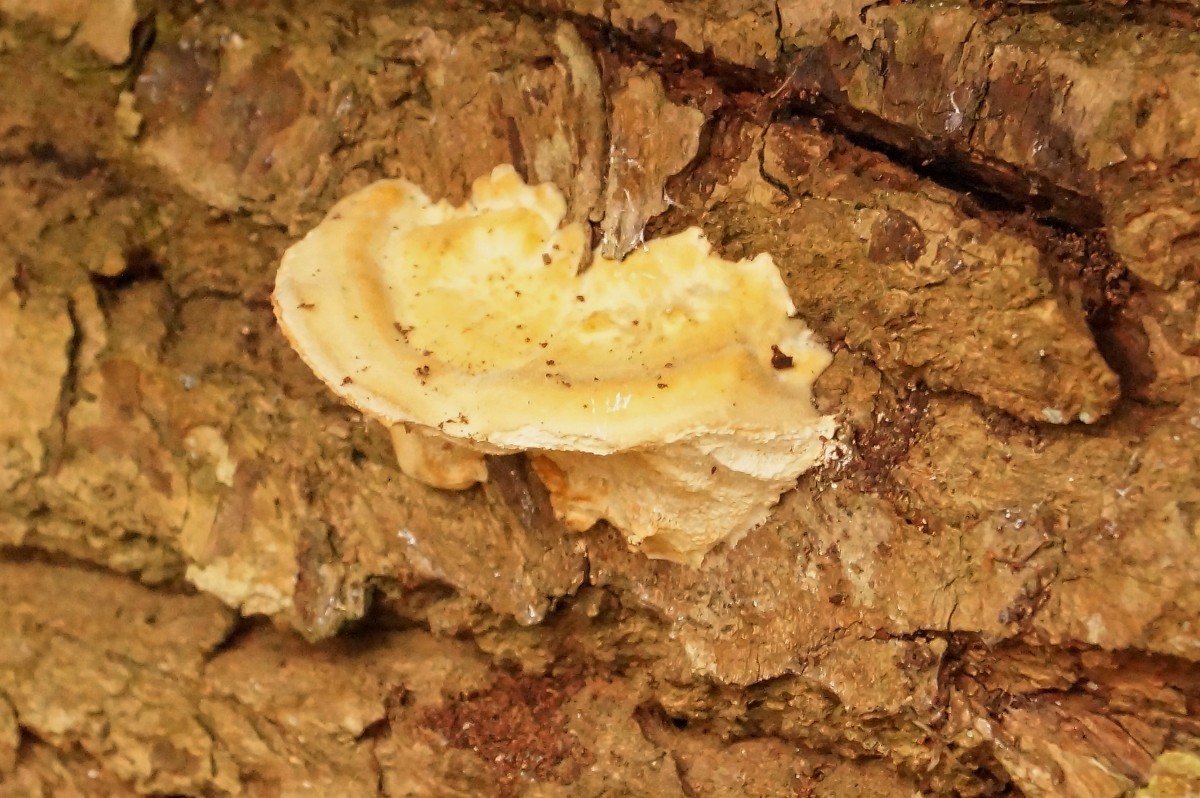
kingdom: Fungi
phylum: Basidiomycota
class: Agaricomycetes
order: Polyporales
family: Polyporaceae
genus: Trametes
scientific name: Trametes
